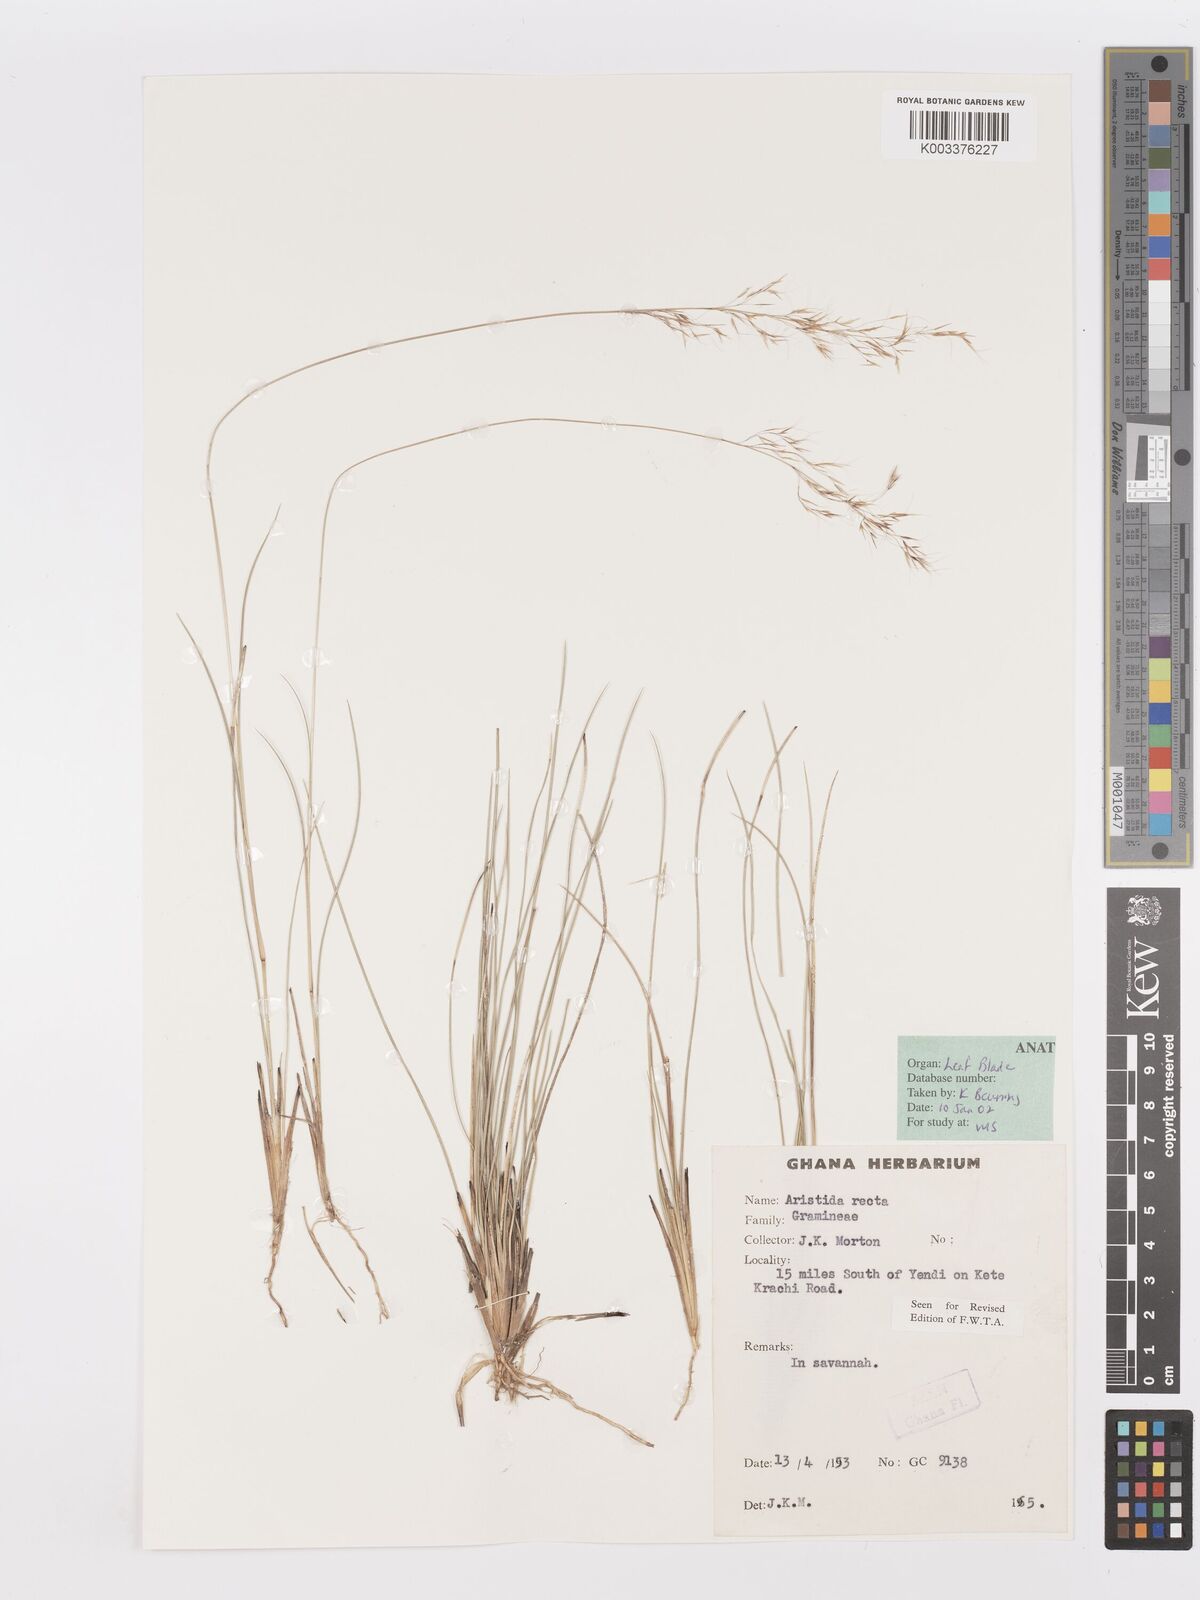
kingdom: Plantae
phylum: Tracheophyta
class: Liliopsida
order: Poales
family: Poaceae
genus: Aristida
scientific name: Aristida recta
